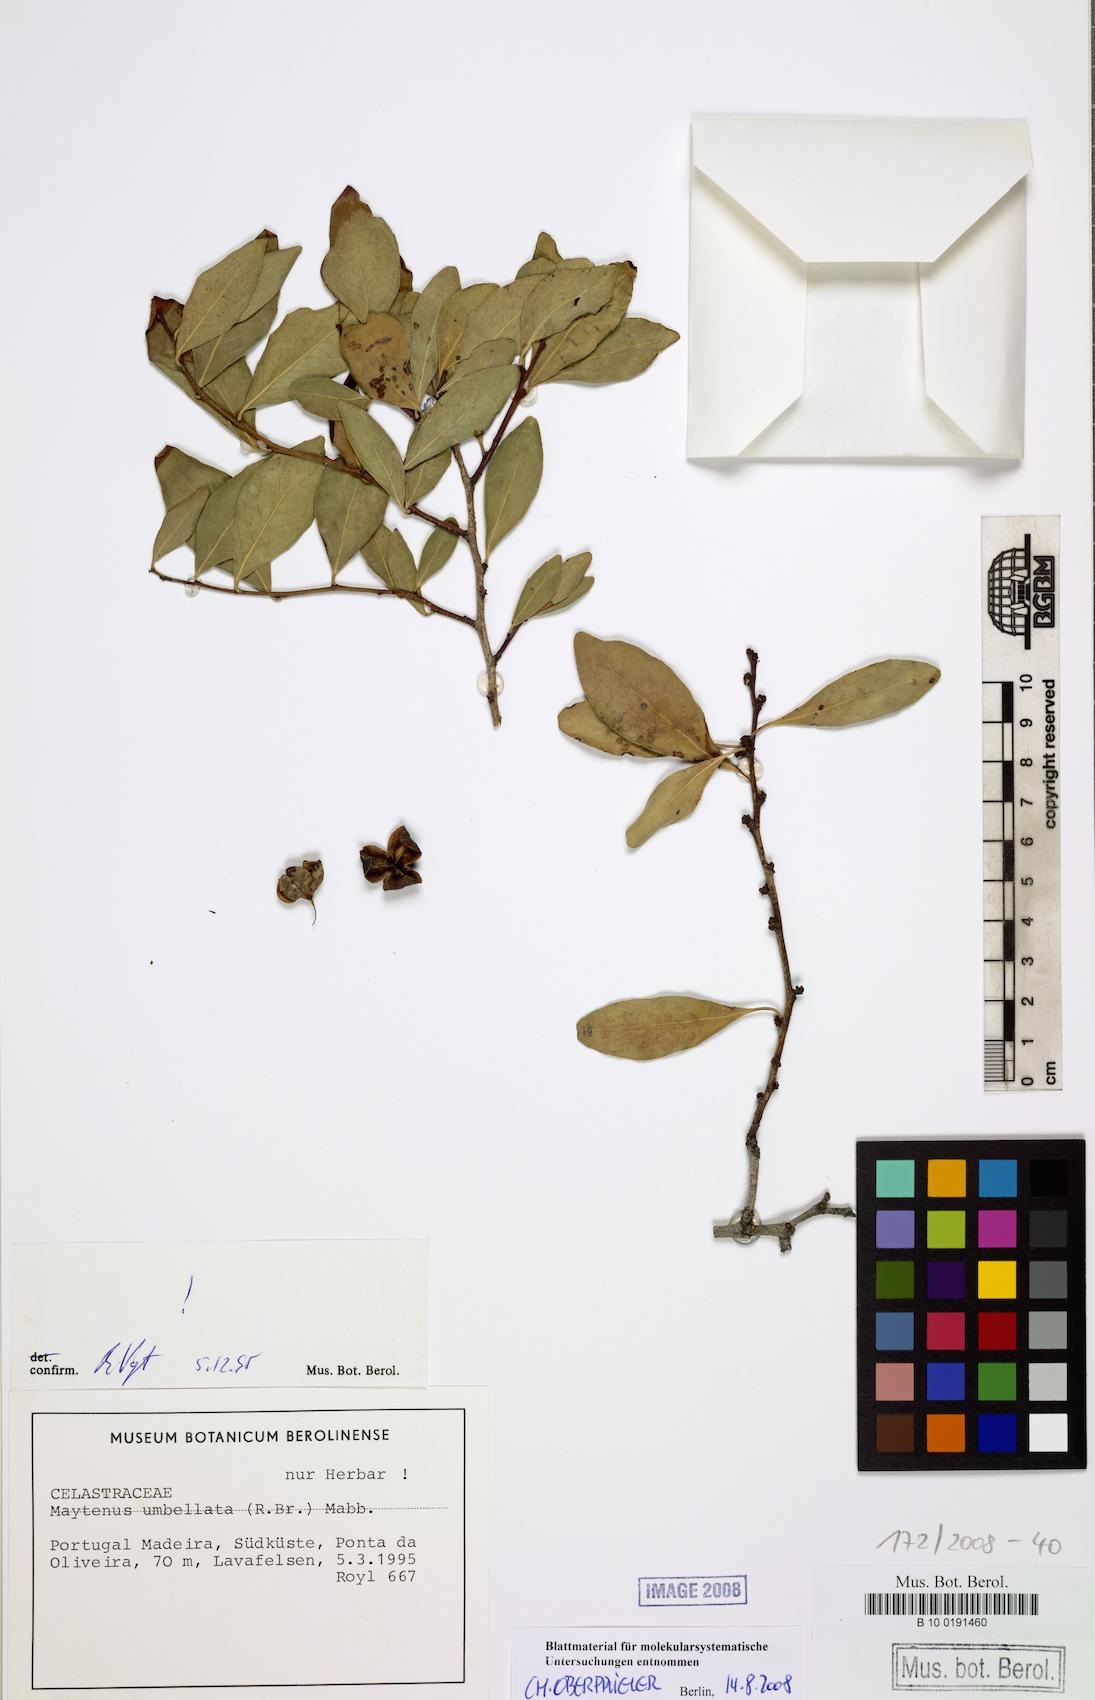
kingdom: Plantae
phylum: Tracheophyta
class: Magnoliopsida
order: Celastrales
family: Celastraceae
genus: Gymnosporia
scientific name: Gymnosporia dryandri
